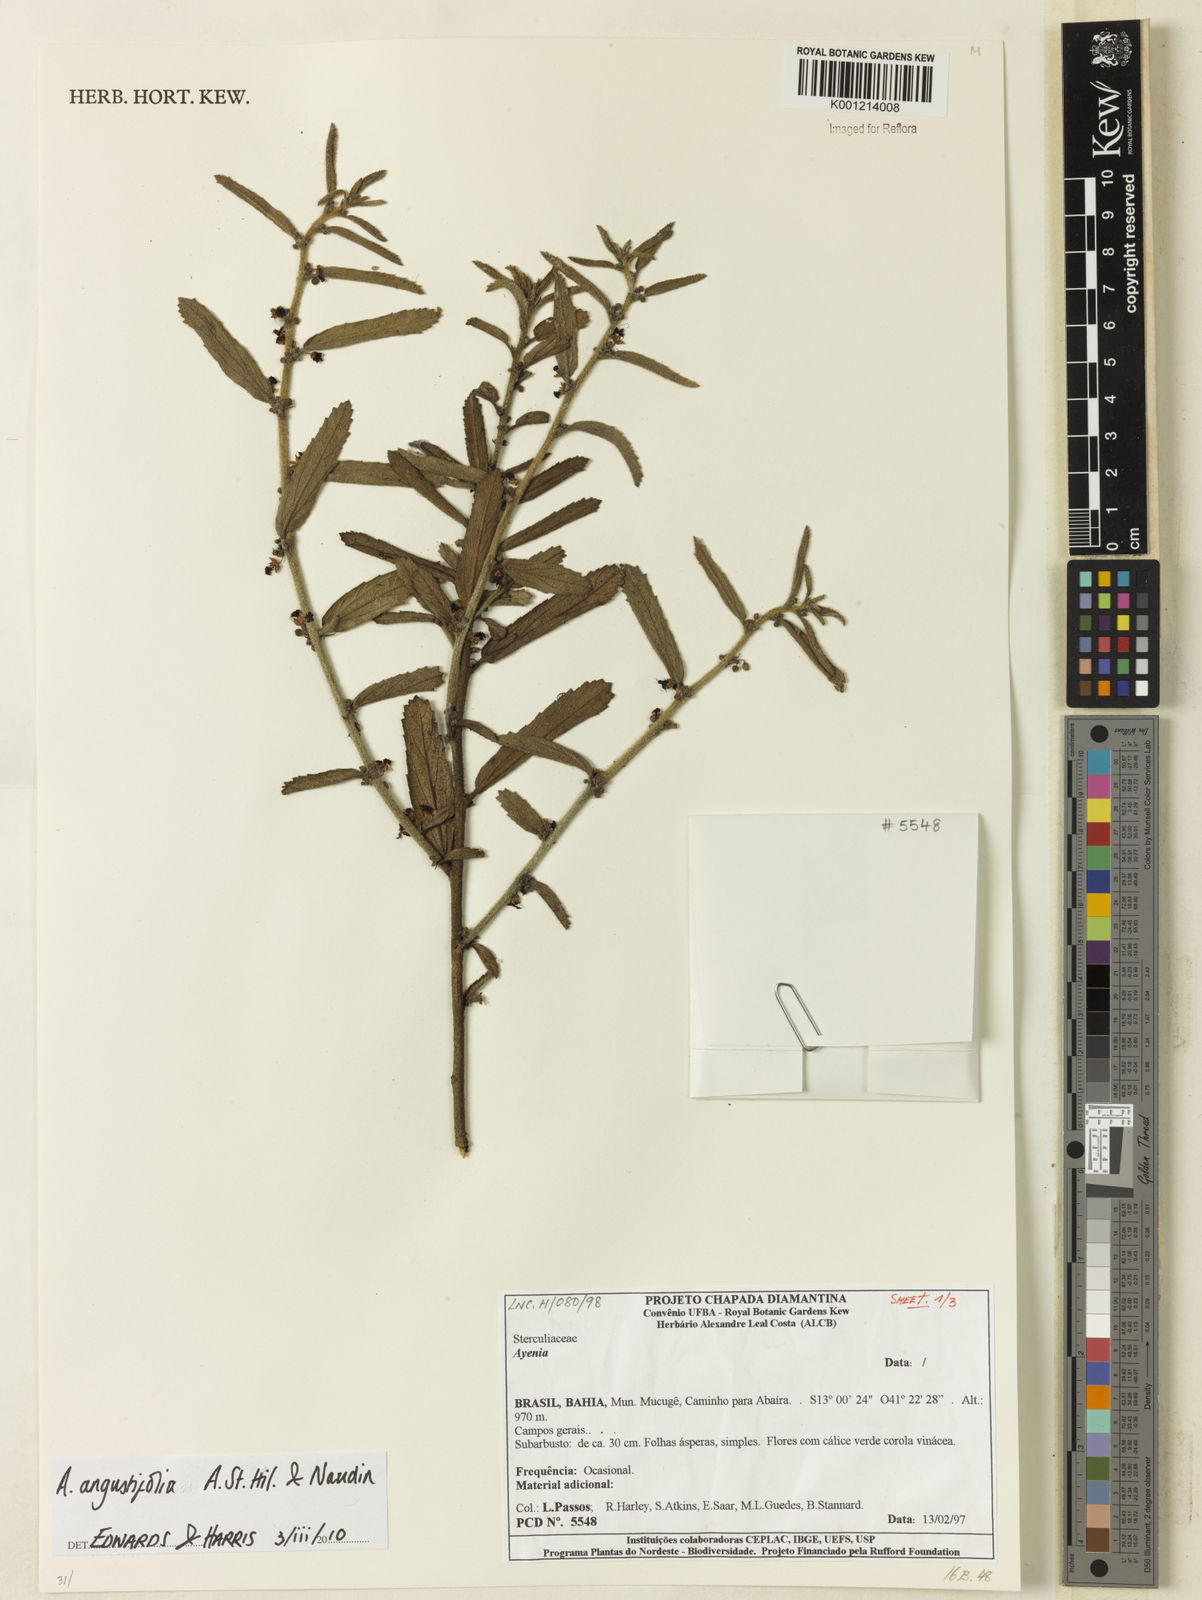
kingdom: Plantae
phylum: Tracheophyta
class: Magnoliopsida
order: Malvales
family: Malvaceae
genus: Ayenia
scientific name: Ayenia angustifolia
